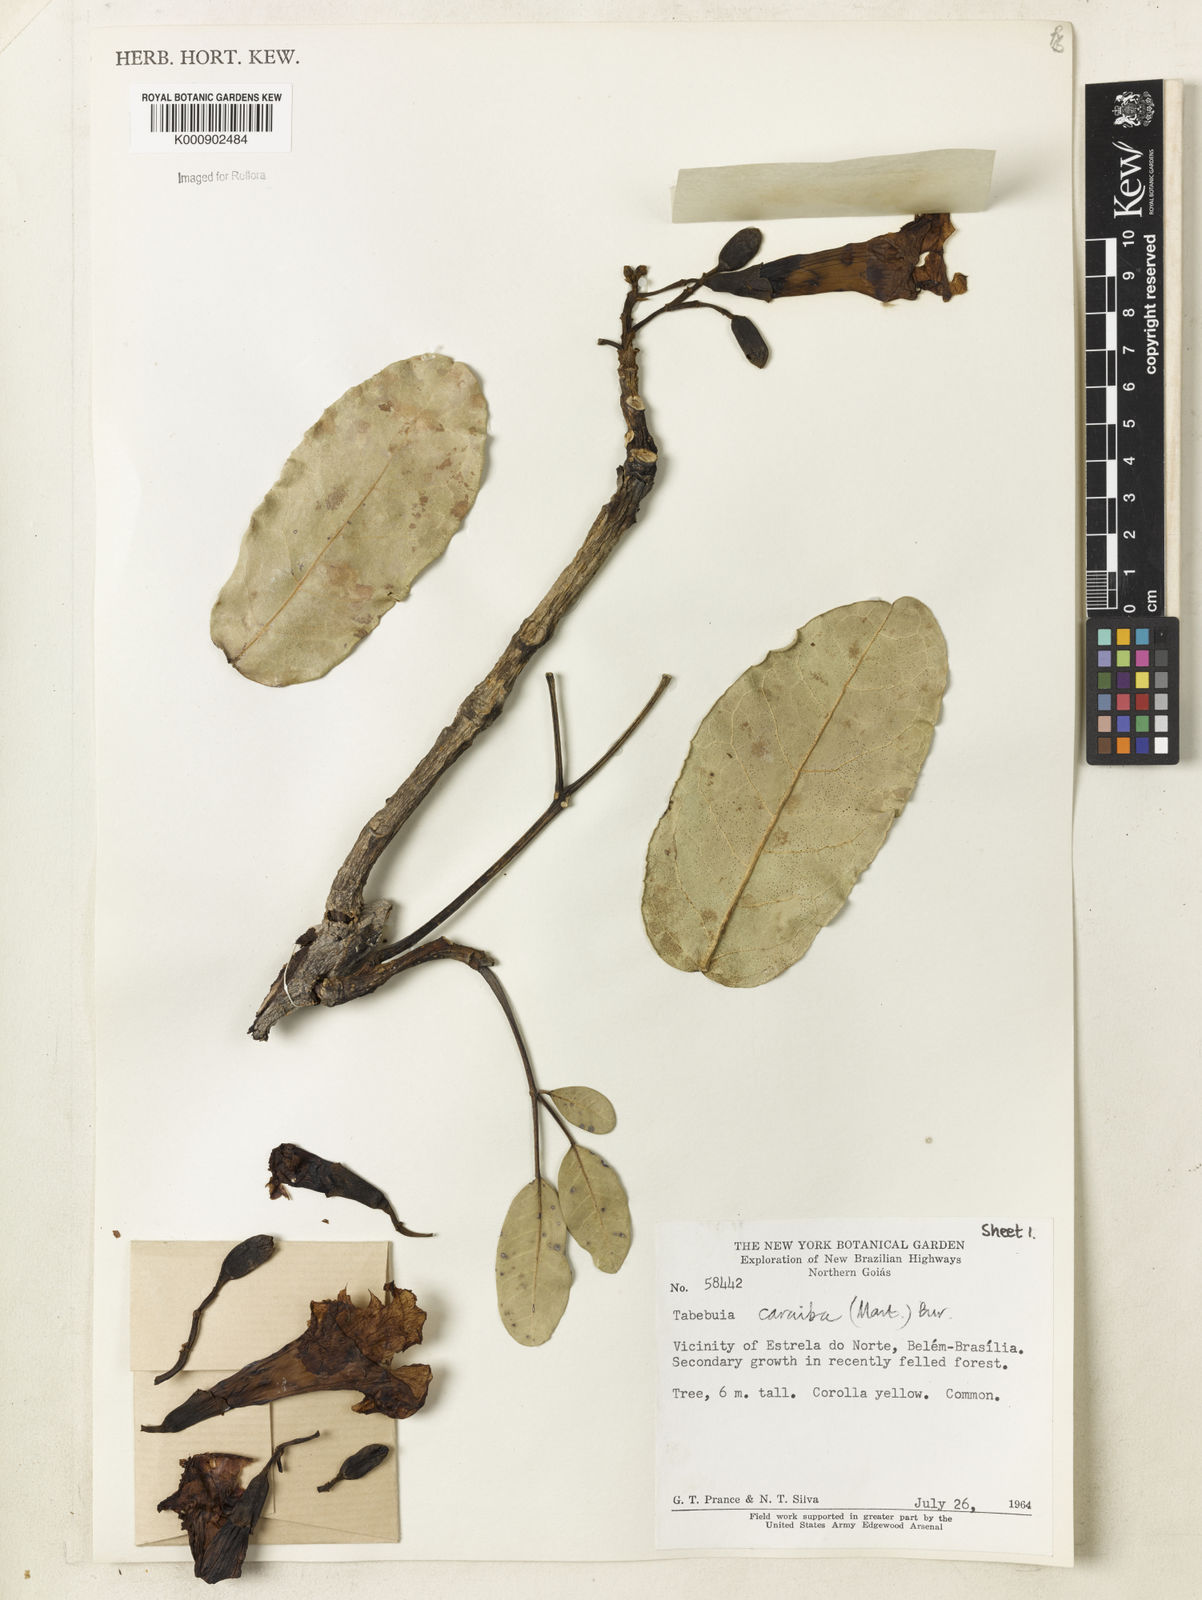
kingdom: Plantae
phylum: Tracheophyta
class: Magnoliopsida
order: Lamiales
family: Bignoniaceae
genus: Tabebuia
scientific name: Tabebuia aurea
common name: Caribbean trumpet-tree
